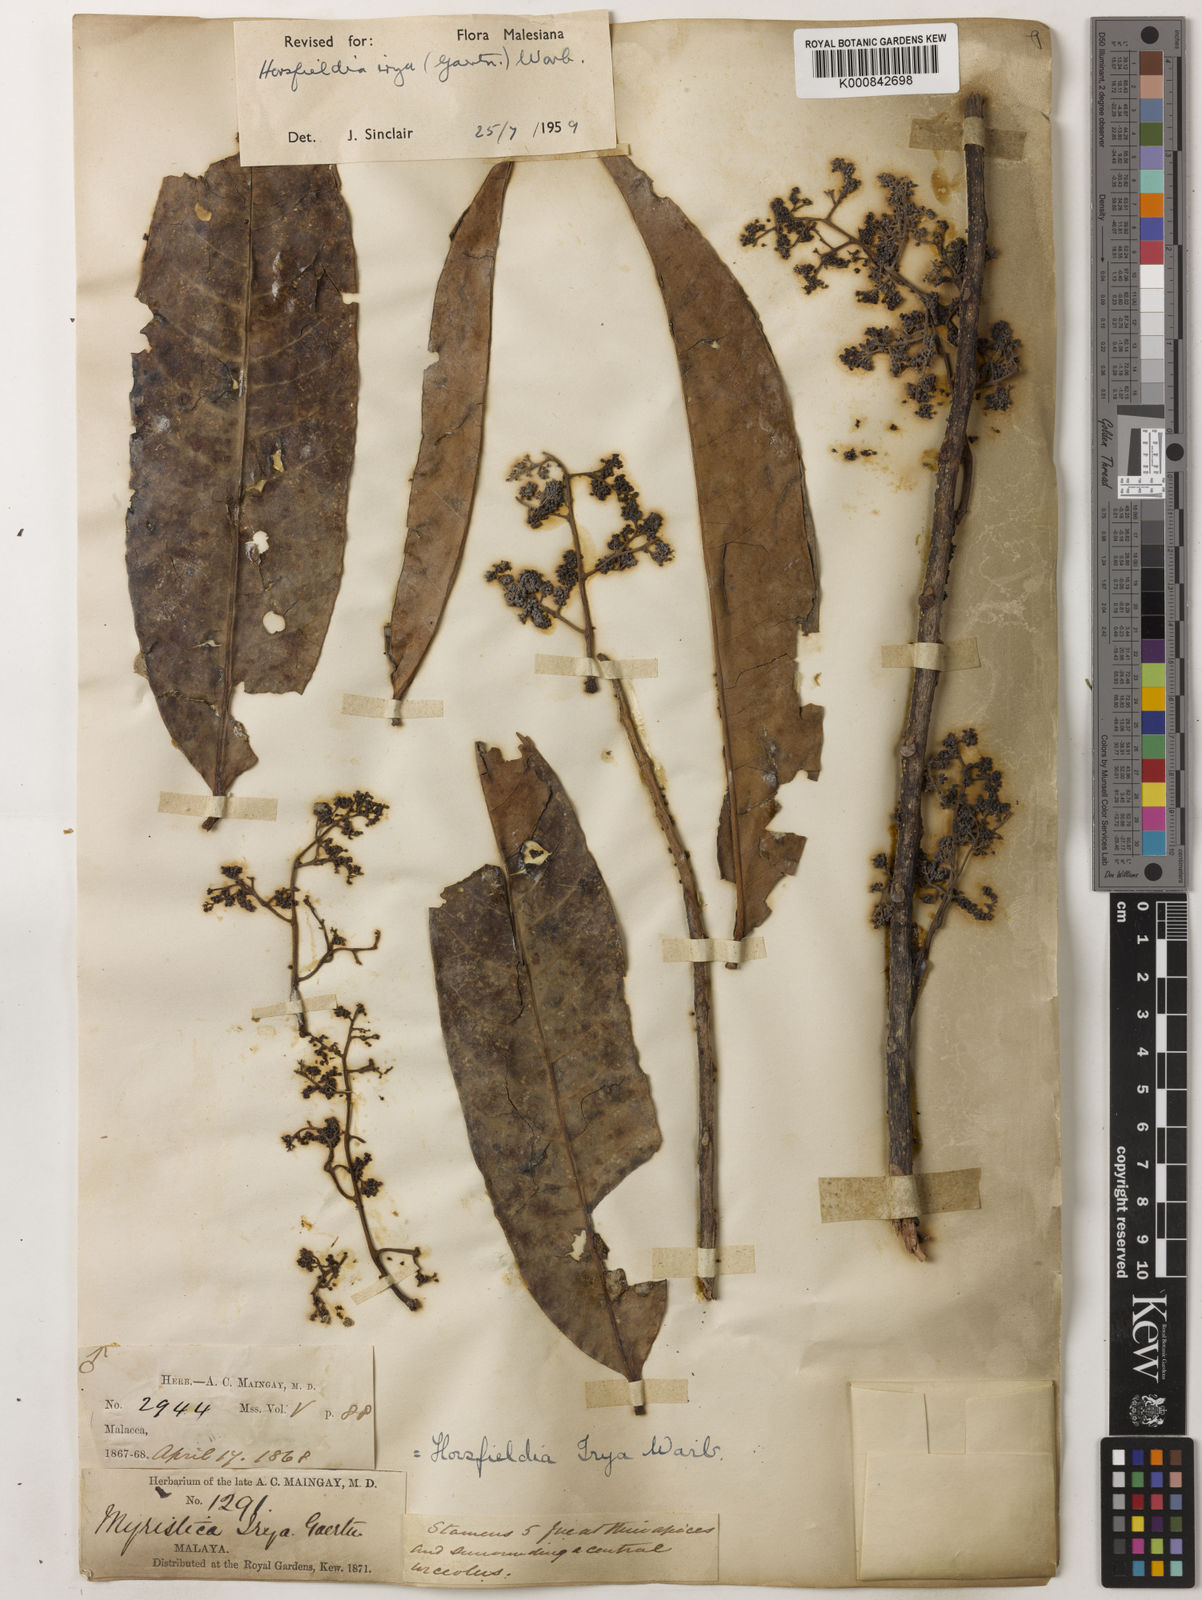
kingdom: Plantae
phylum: Tracheophyta
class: Magnoliopsida
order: Magnoliales
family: Myristicaceae
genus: Horsfieldia
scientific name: Horsfieldia irya
